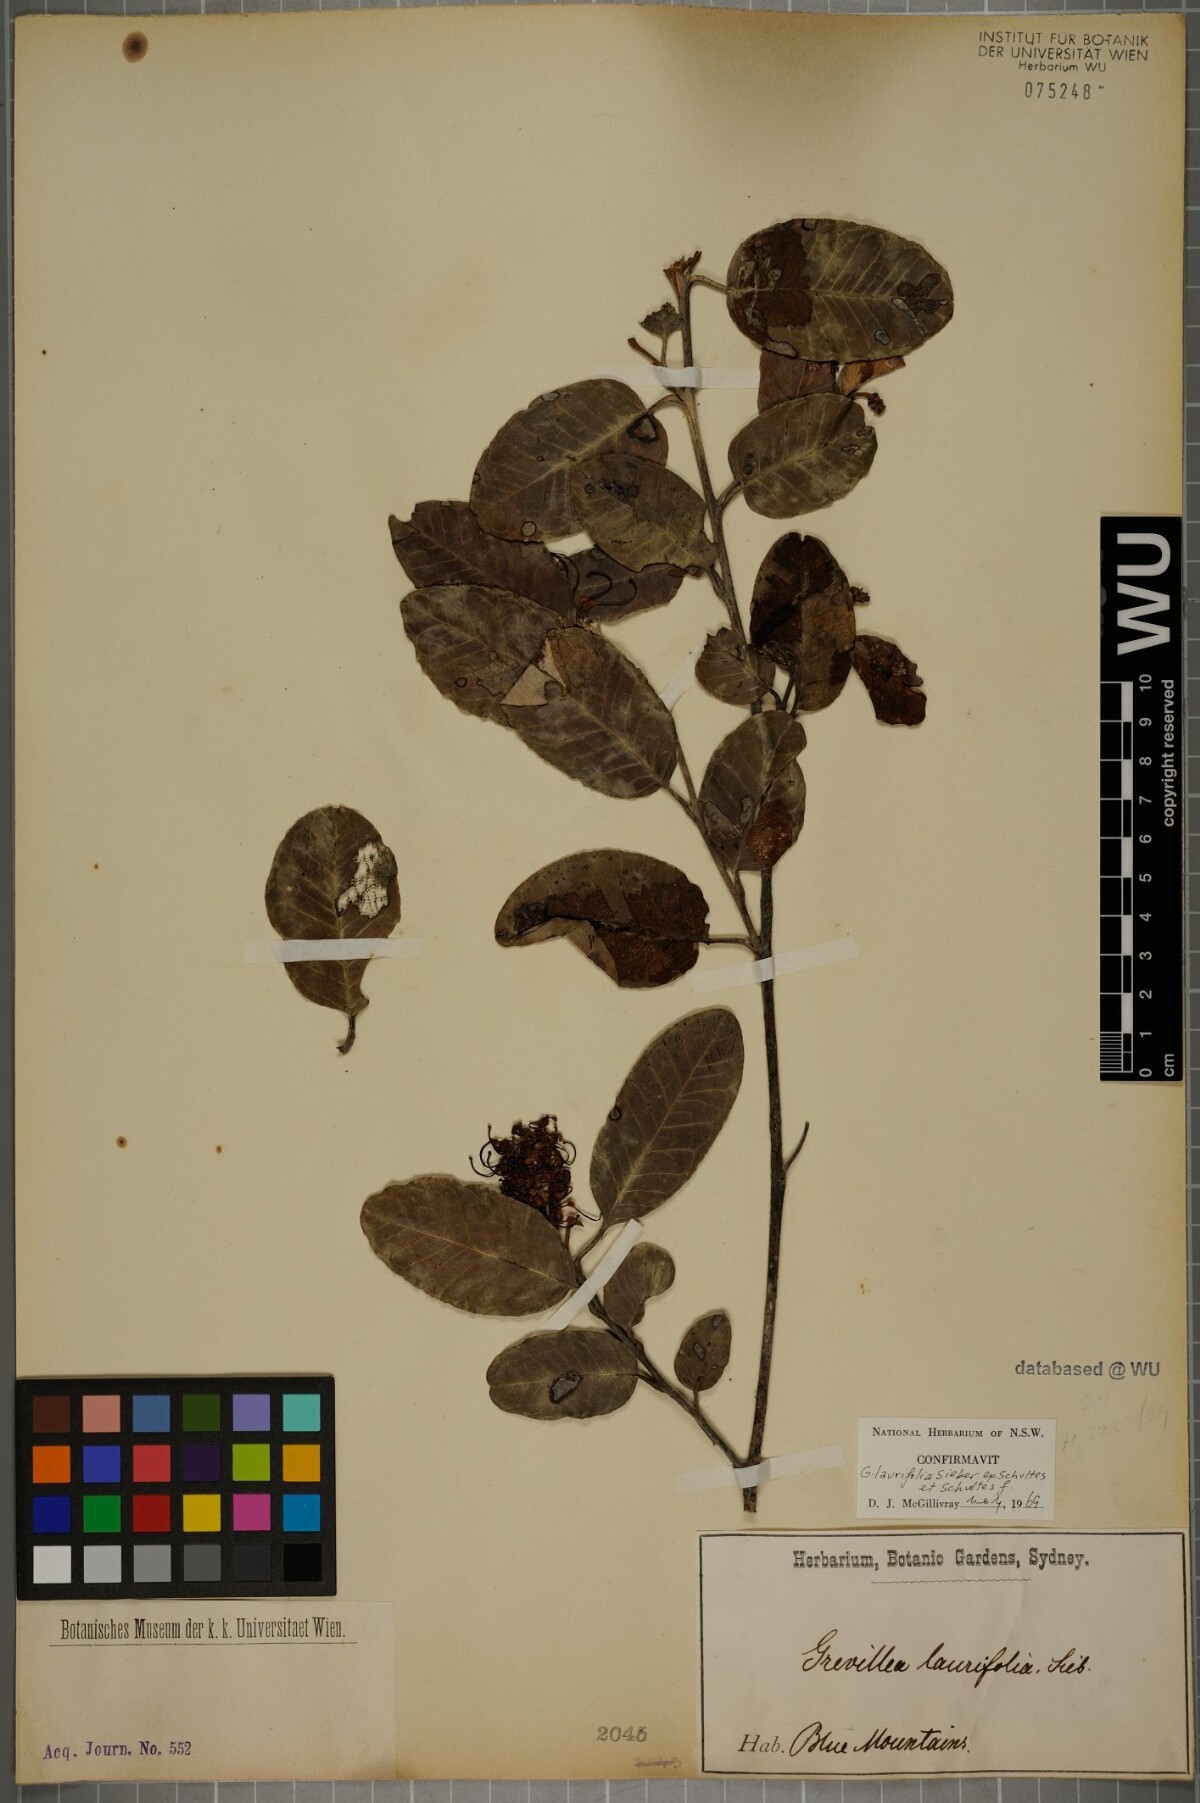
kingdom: Plantae
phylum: Tracheophyta
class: Magnoliopsida
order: Proteales
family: Proteaceae
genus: Grevillea
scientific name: Grevillea laurifolia
